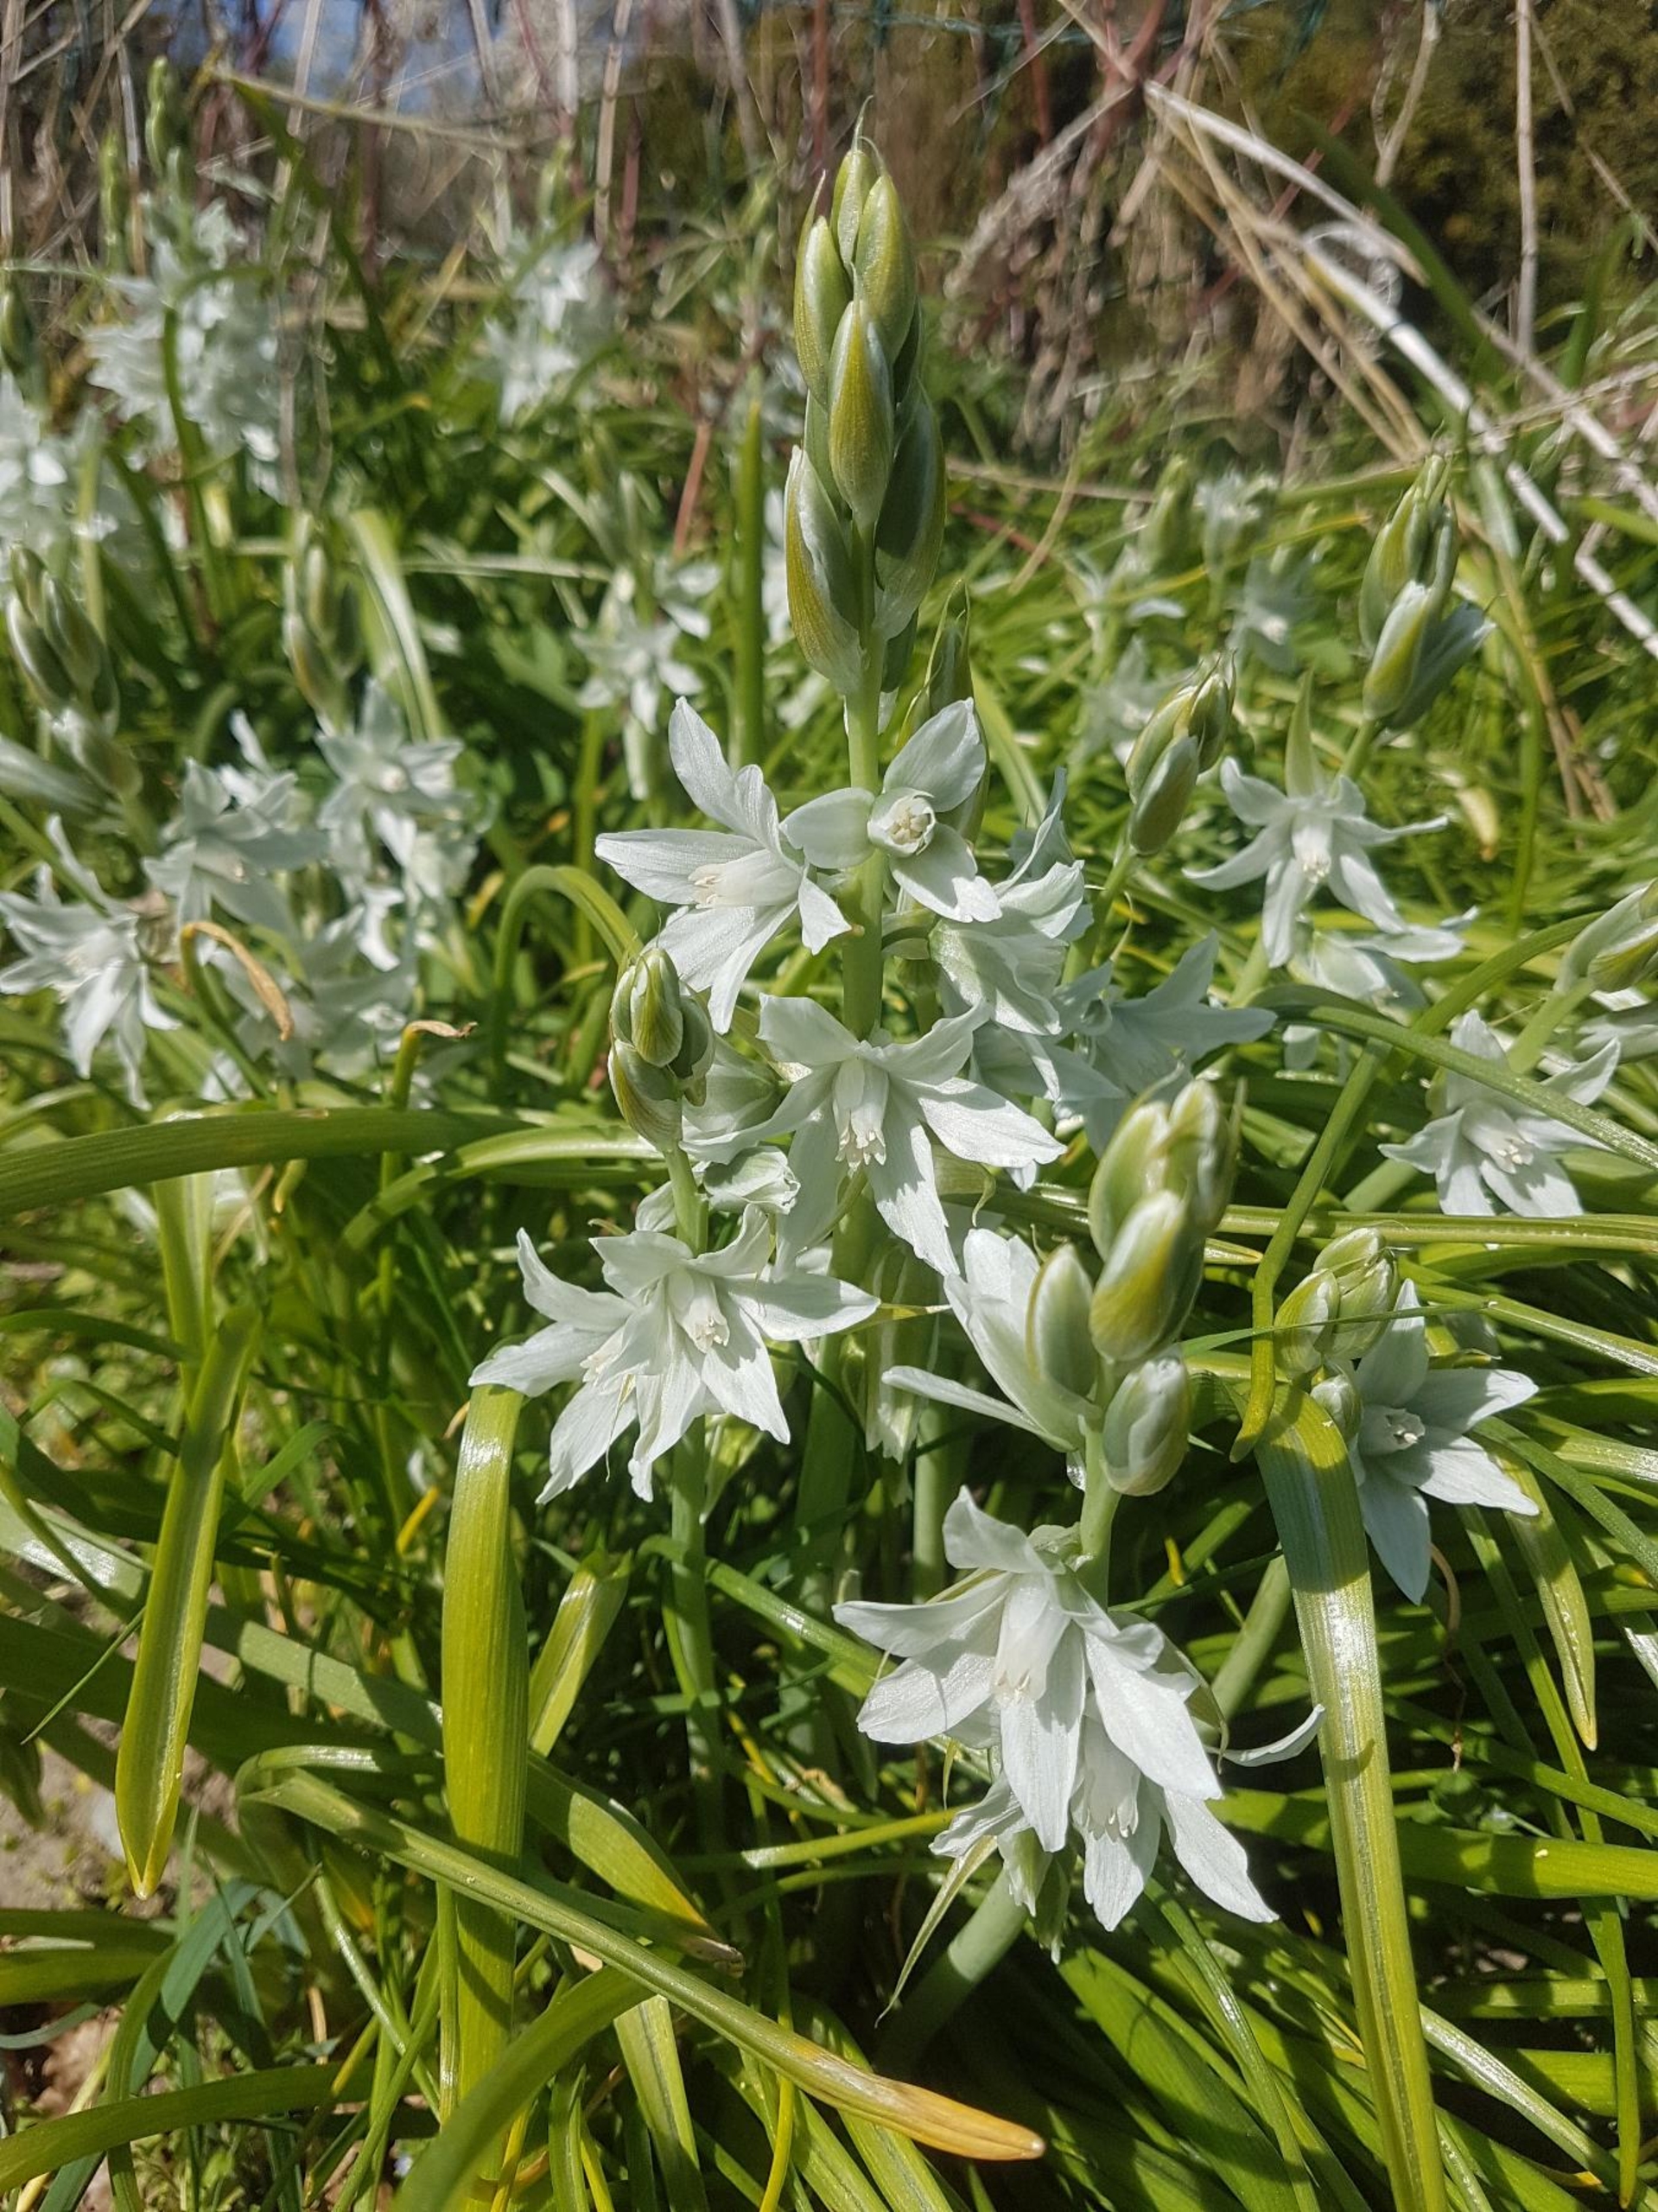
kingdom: Plantae
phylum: Tracheophyta
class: Liliopsida
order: Asparagales
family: Asparagaceae
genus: Ornithogalum
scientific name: Ornithogalum nutans
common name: Nikkende fuglemælk
